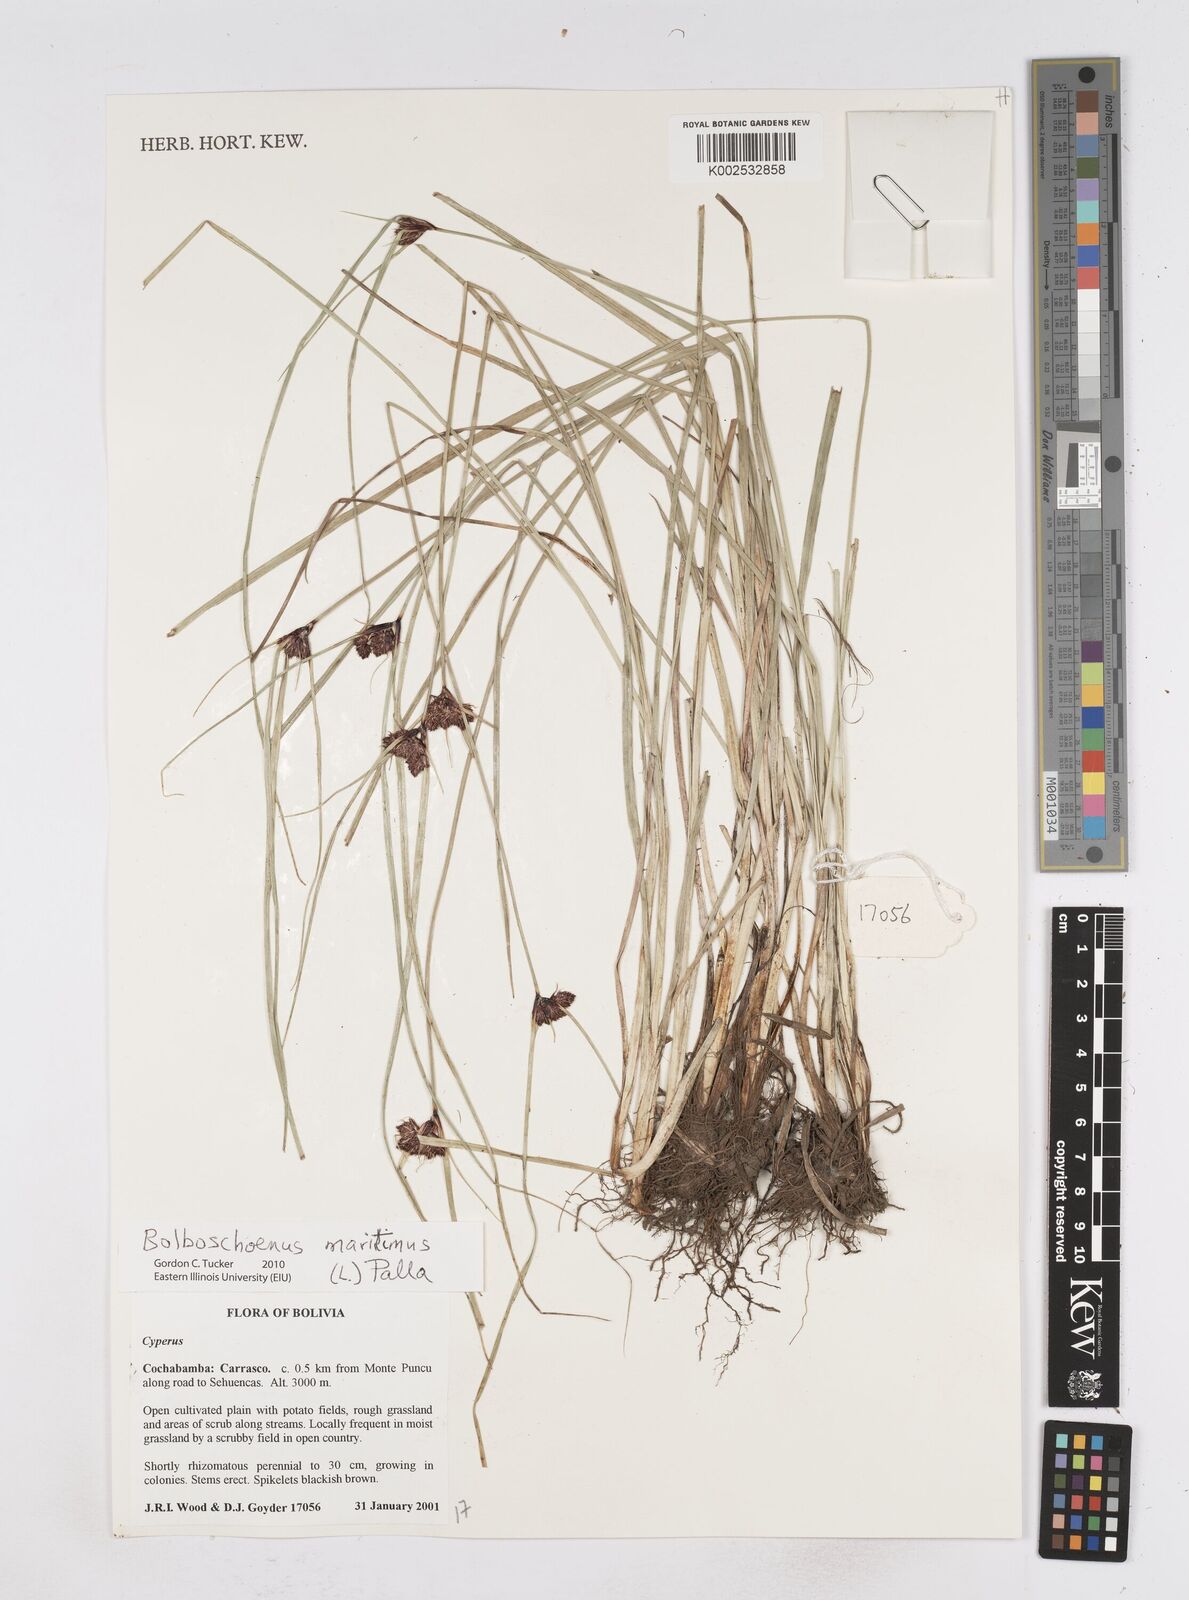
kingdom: Plantae
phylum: Tracheophyta
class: Liliopsida
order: Poales
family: Cyperaceae
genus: Bolboschoenus
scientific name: Bolboschoenus maritimus
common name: Sea club-rush
